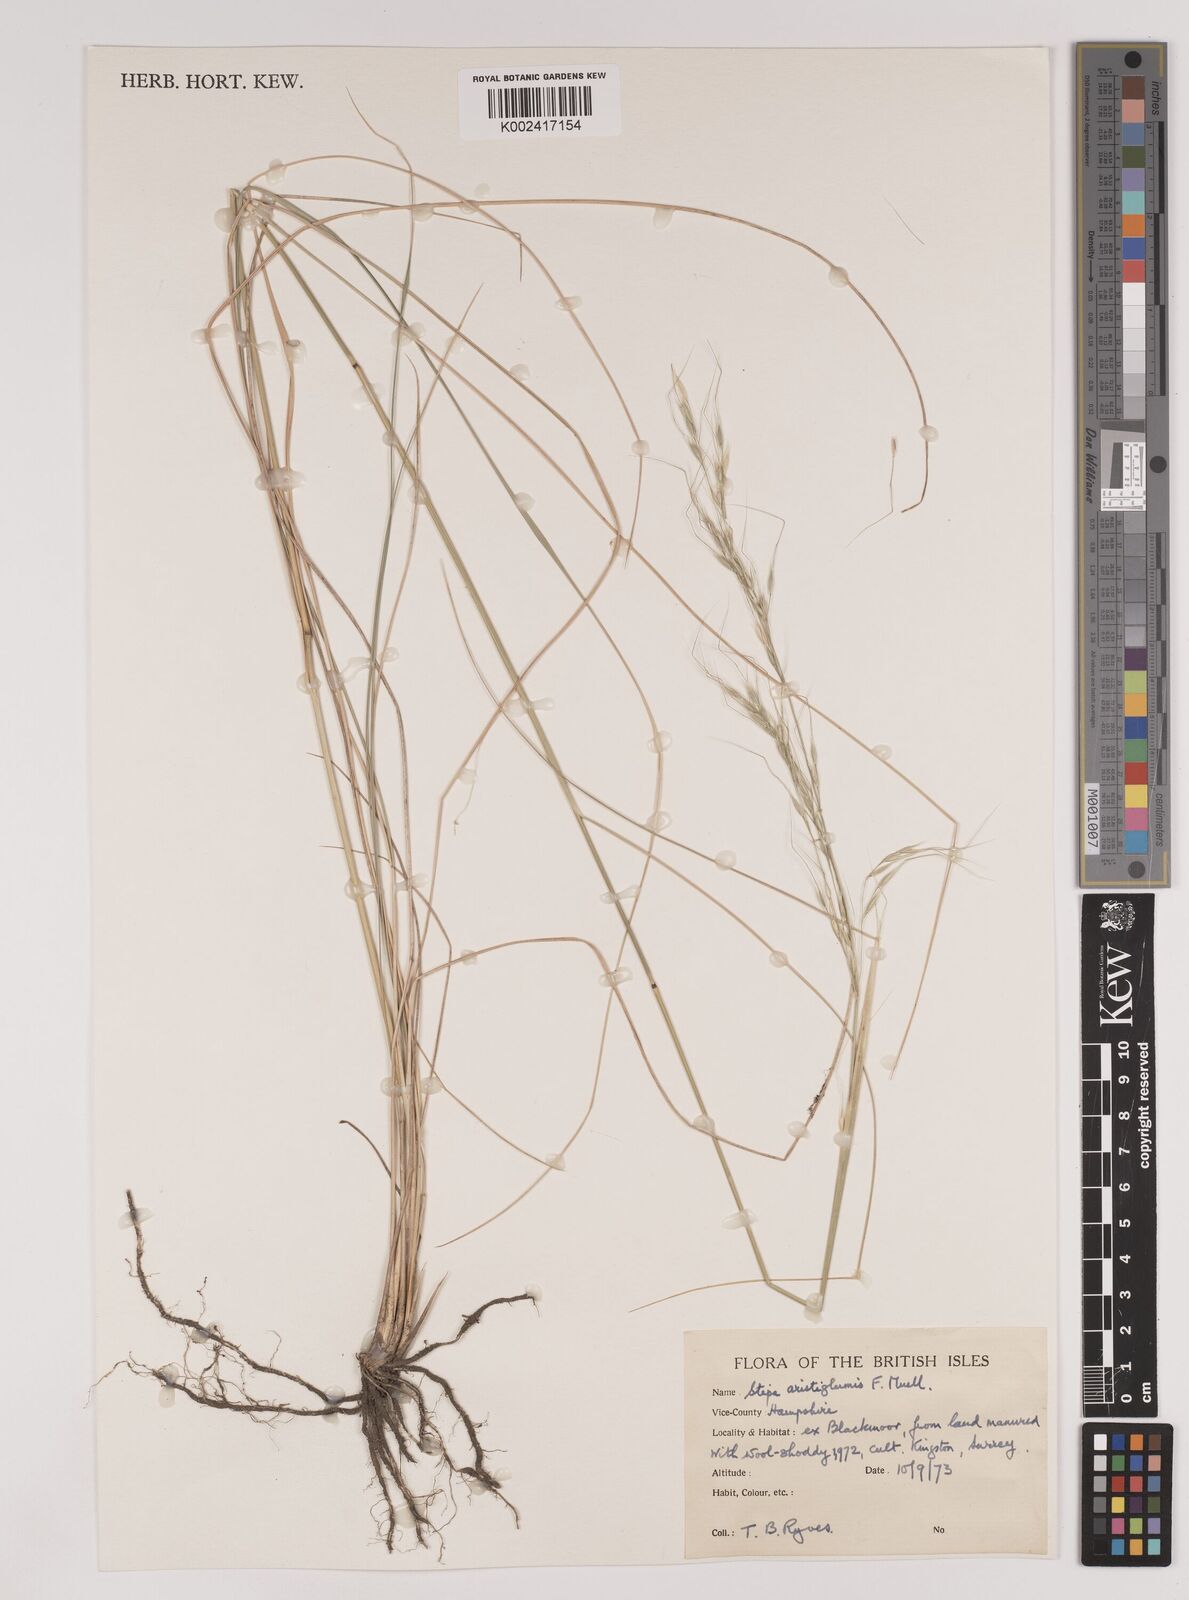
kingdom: Plantae
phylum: Tracheophyta
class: Liliopsida
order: Poales
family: Poaceae
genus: Austrostipa
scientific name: Austrostipa aristiglumis
